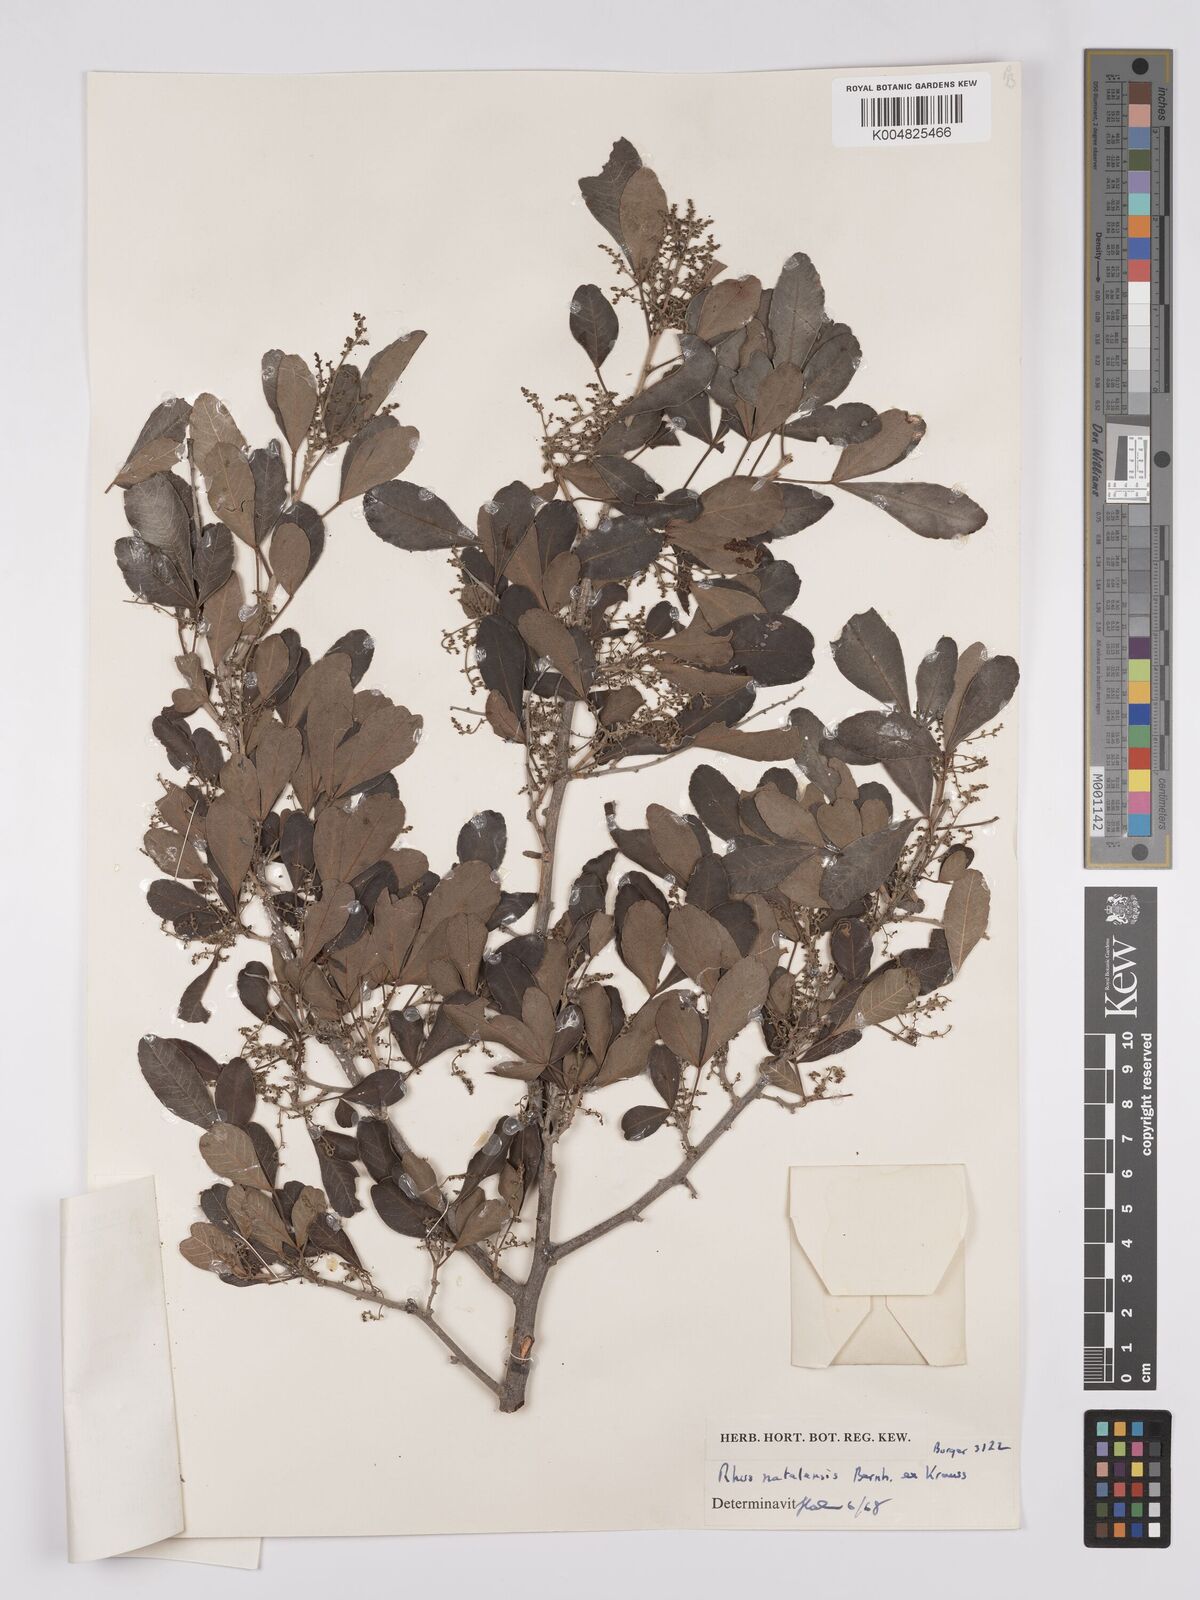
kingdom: Plantae
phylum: Tracheophyta
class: Magnoliopsida
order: Sapindales
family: Anacardiaceae
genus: Searsia
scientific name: Searsia natalensis
